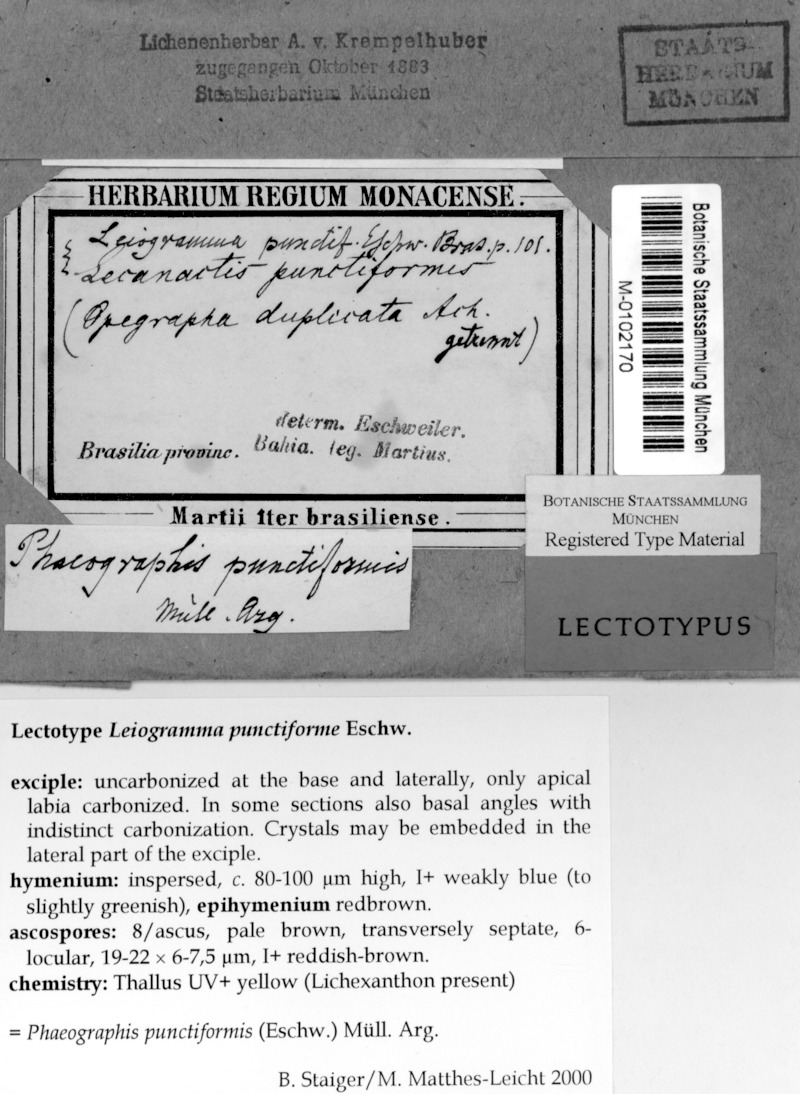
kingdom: Fungi
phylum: Ascomycota
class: Lecanoromycetes
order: Ostropales
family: Graphidaceae
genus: Phaeographis
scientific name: Phaeographis punctiformis
